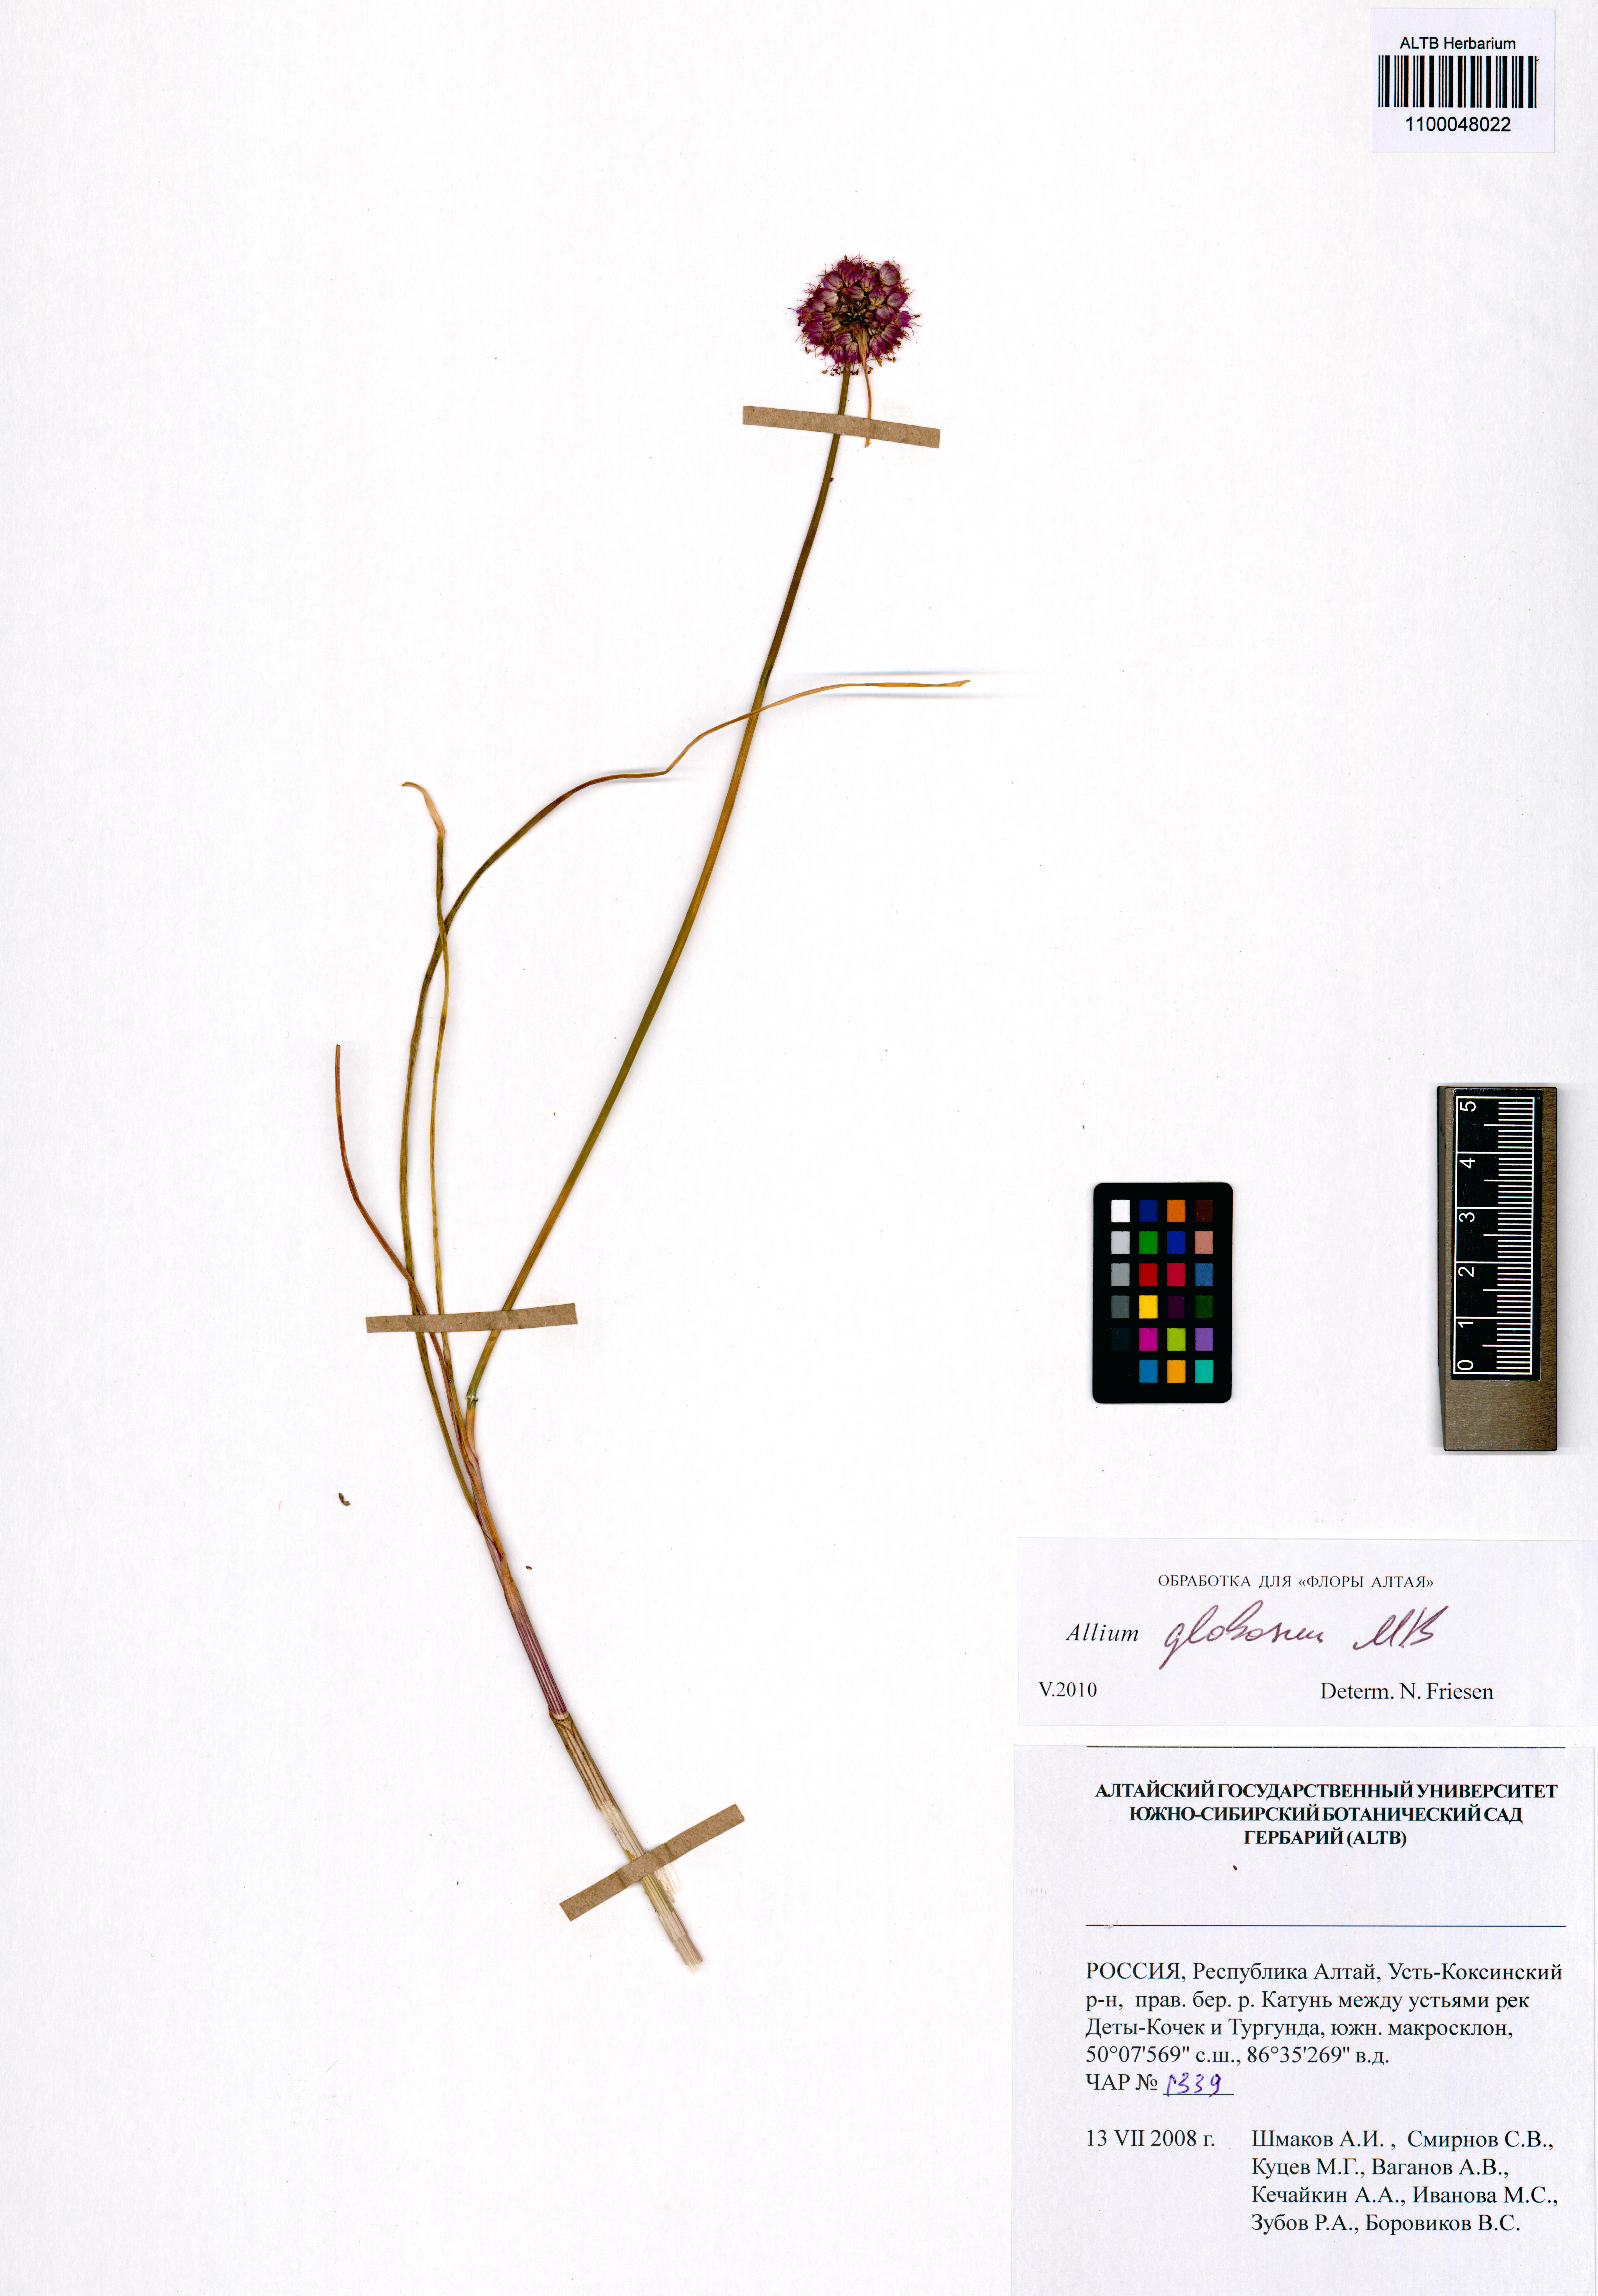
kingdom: Plantae
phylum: Tracheophyta
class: Liliopsida
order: Asparagales
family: Amaryllidaceae
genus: Allium
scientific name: Allium saxatile
